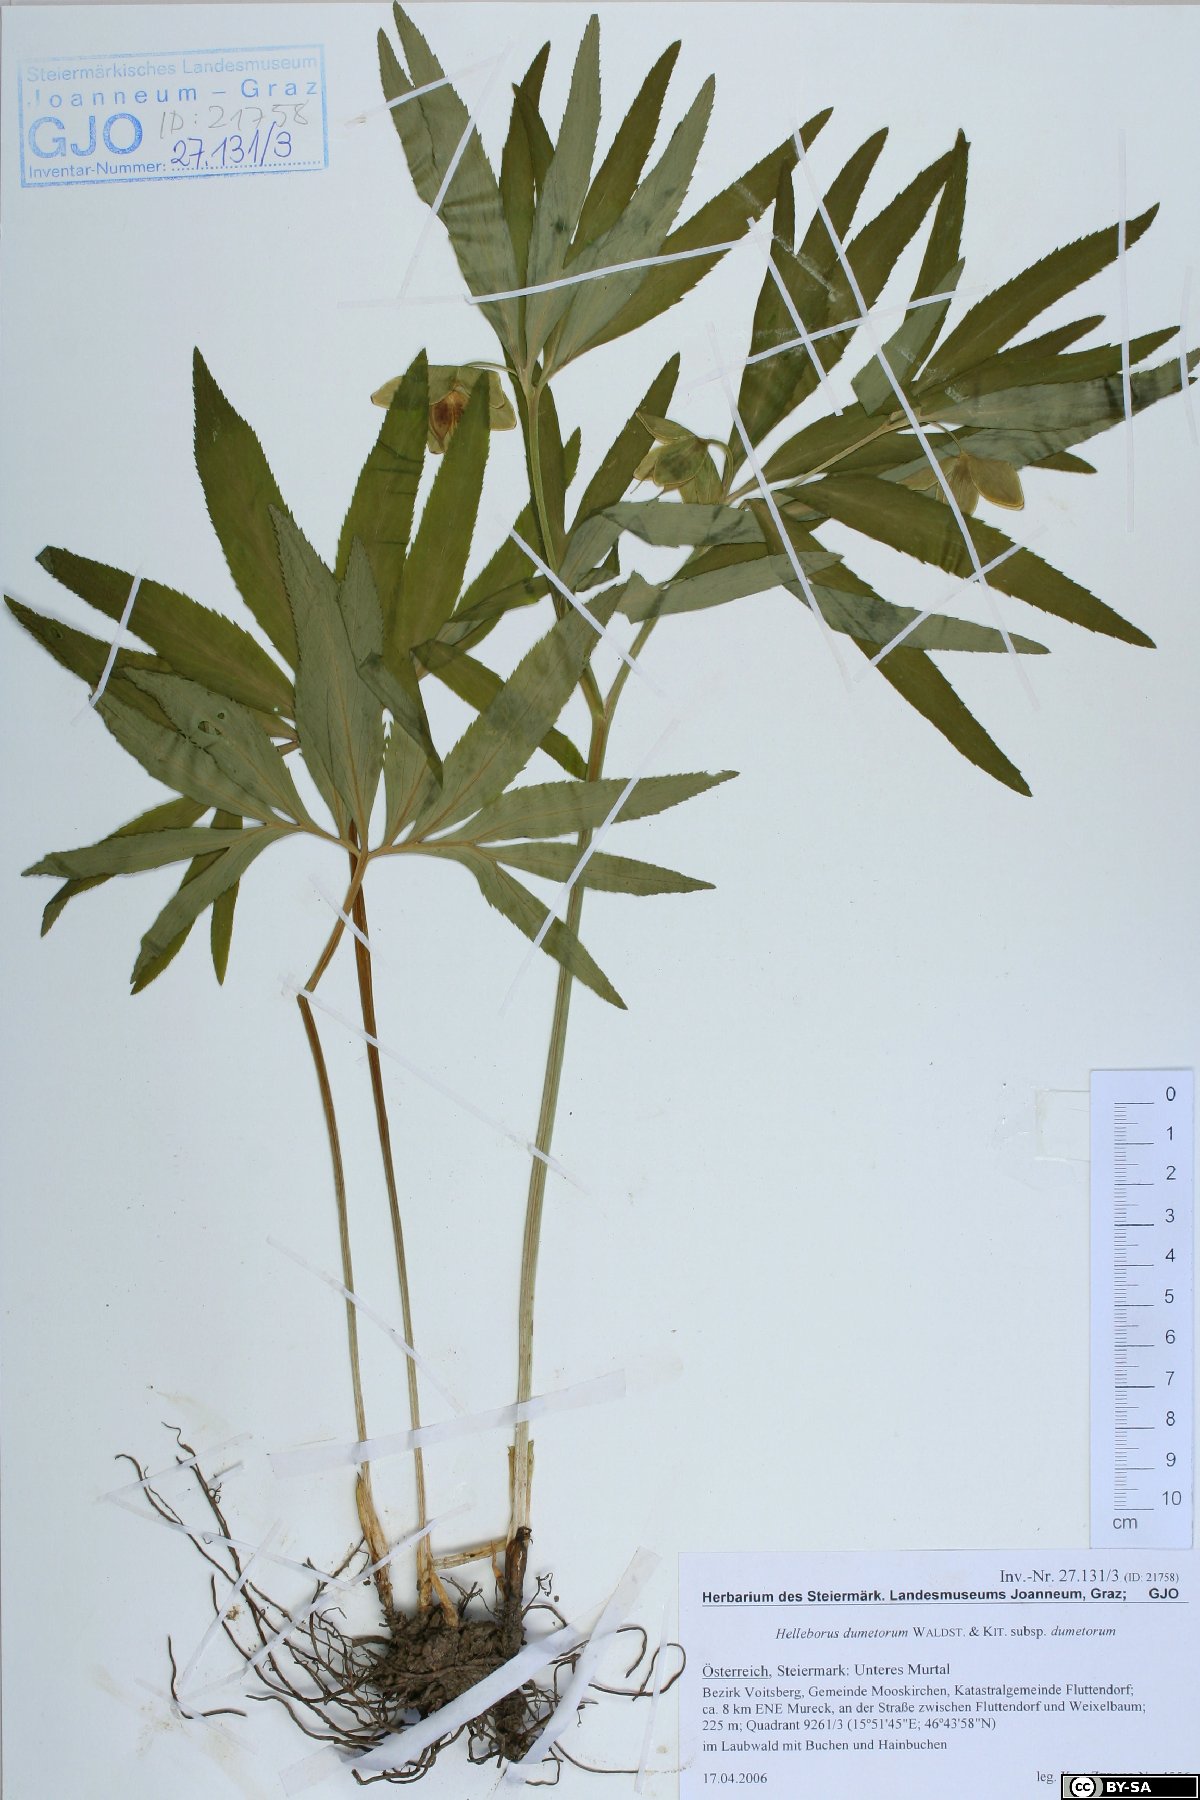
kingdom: Plantae
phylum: Tracheophyta
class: Magnoliopsida
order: Ranunculales
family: Ranunculaceae
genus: Helleborus
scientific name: Helleborus dumetorum
